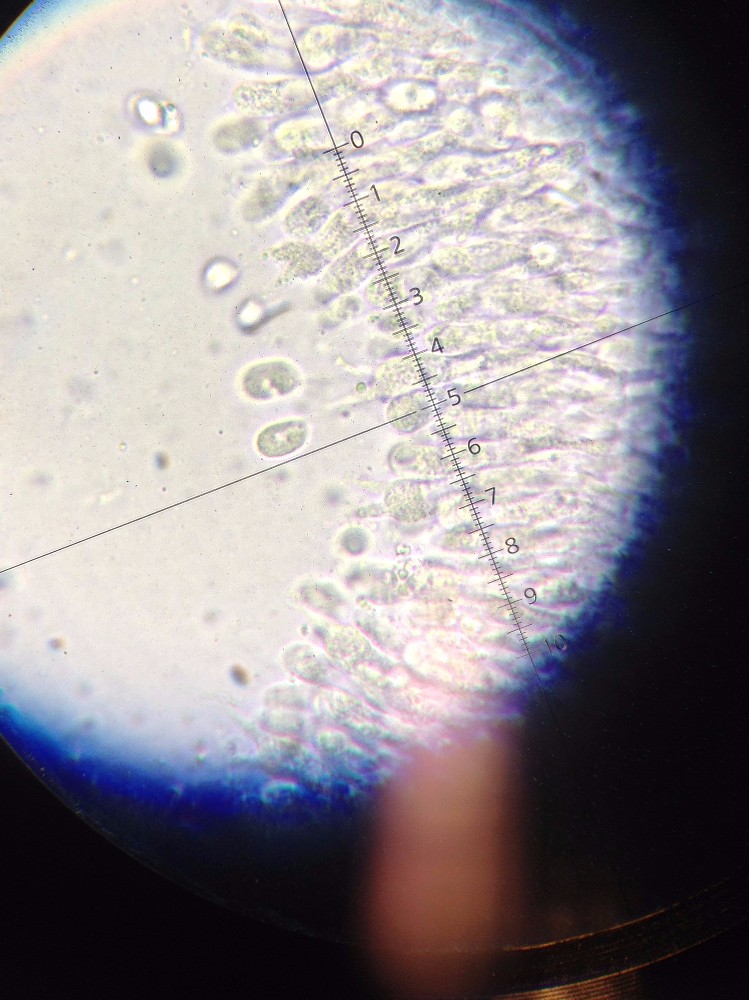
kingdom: Fungi
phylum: Basidiomycota
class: Agaricomycetes
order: Agaricales
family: Mycenaceae
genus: Mycena
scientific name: Mycena galericulata
